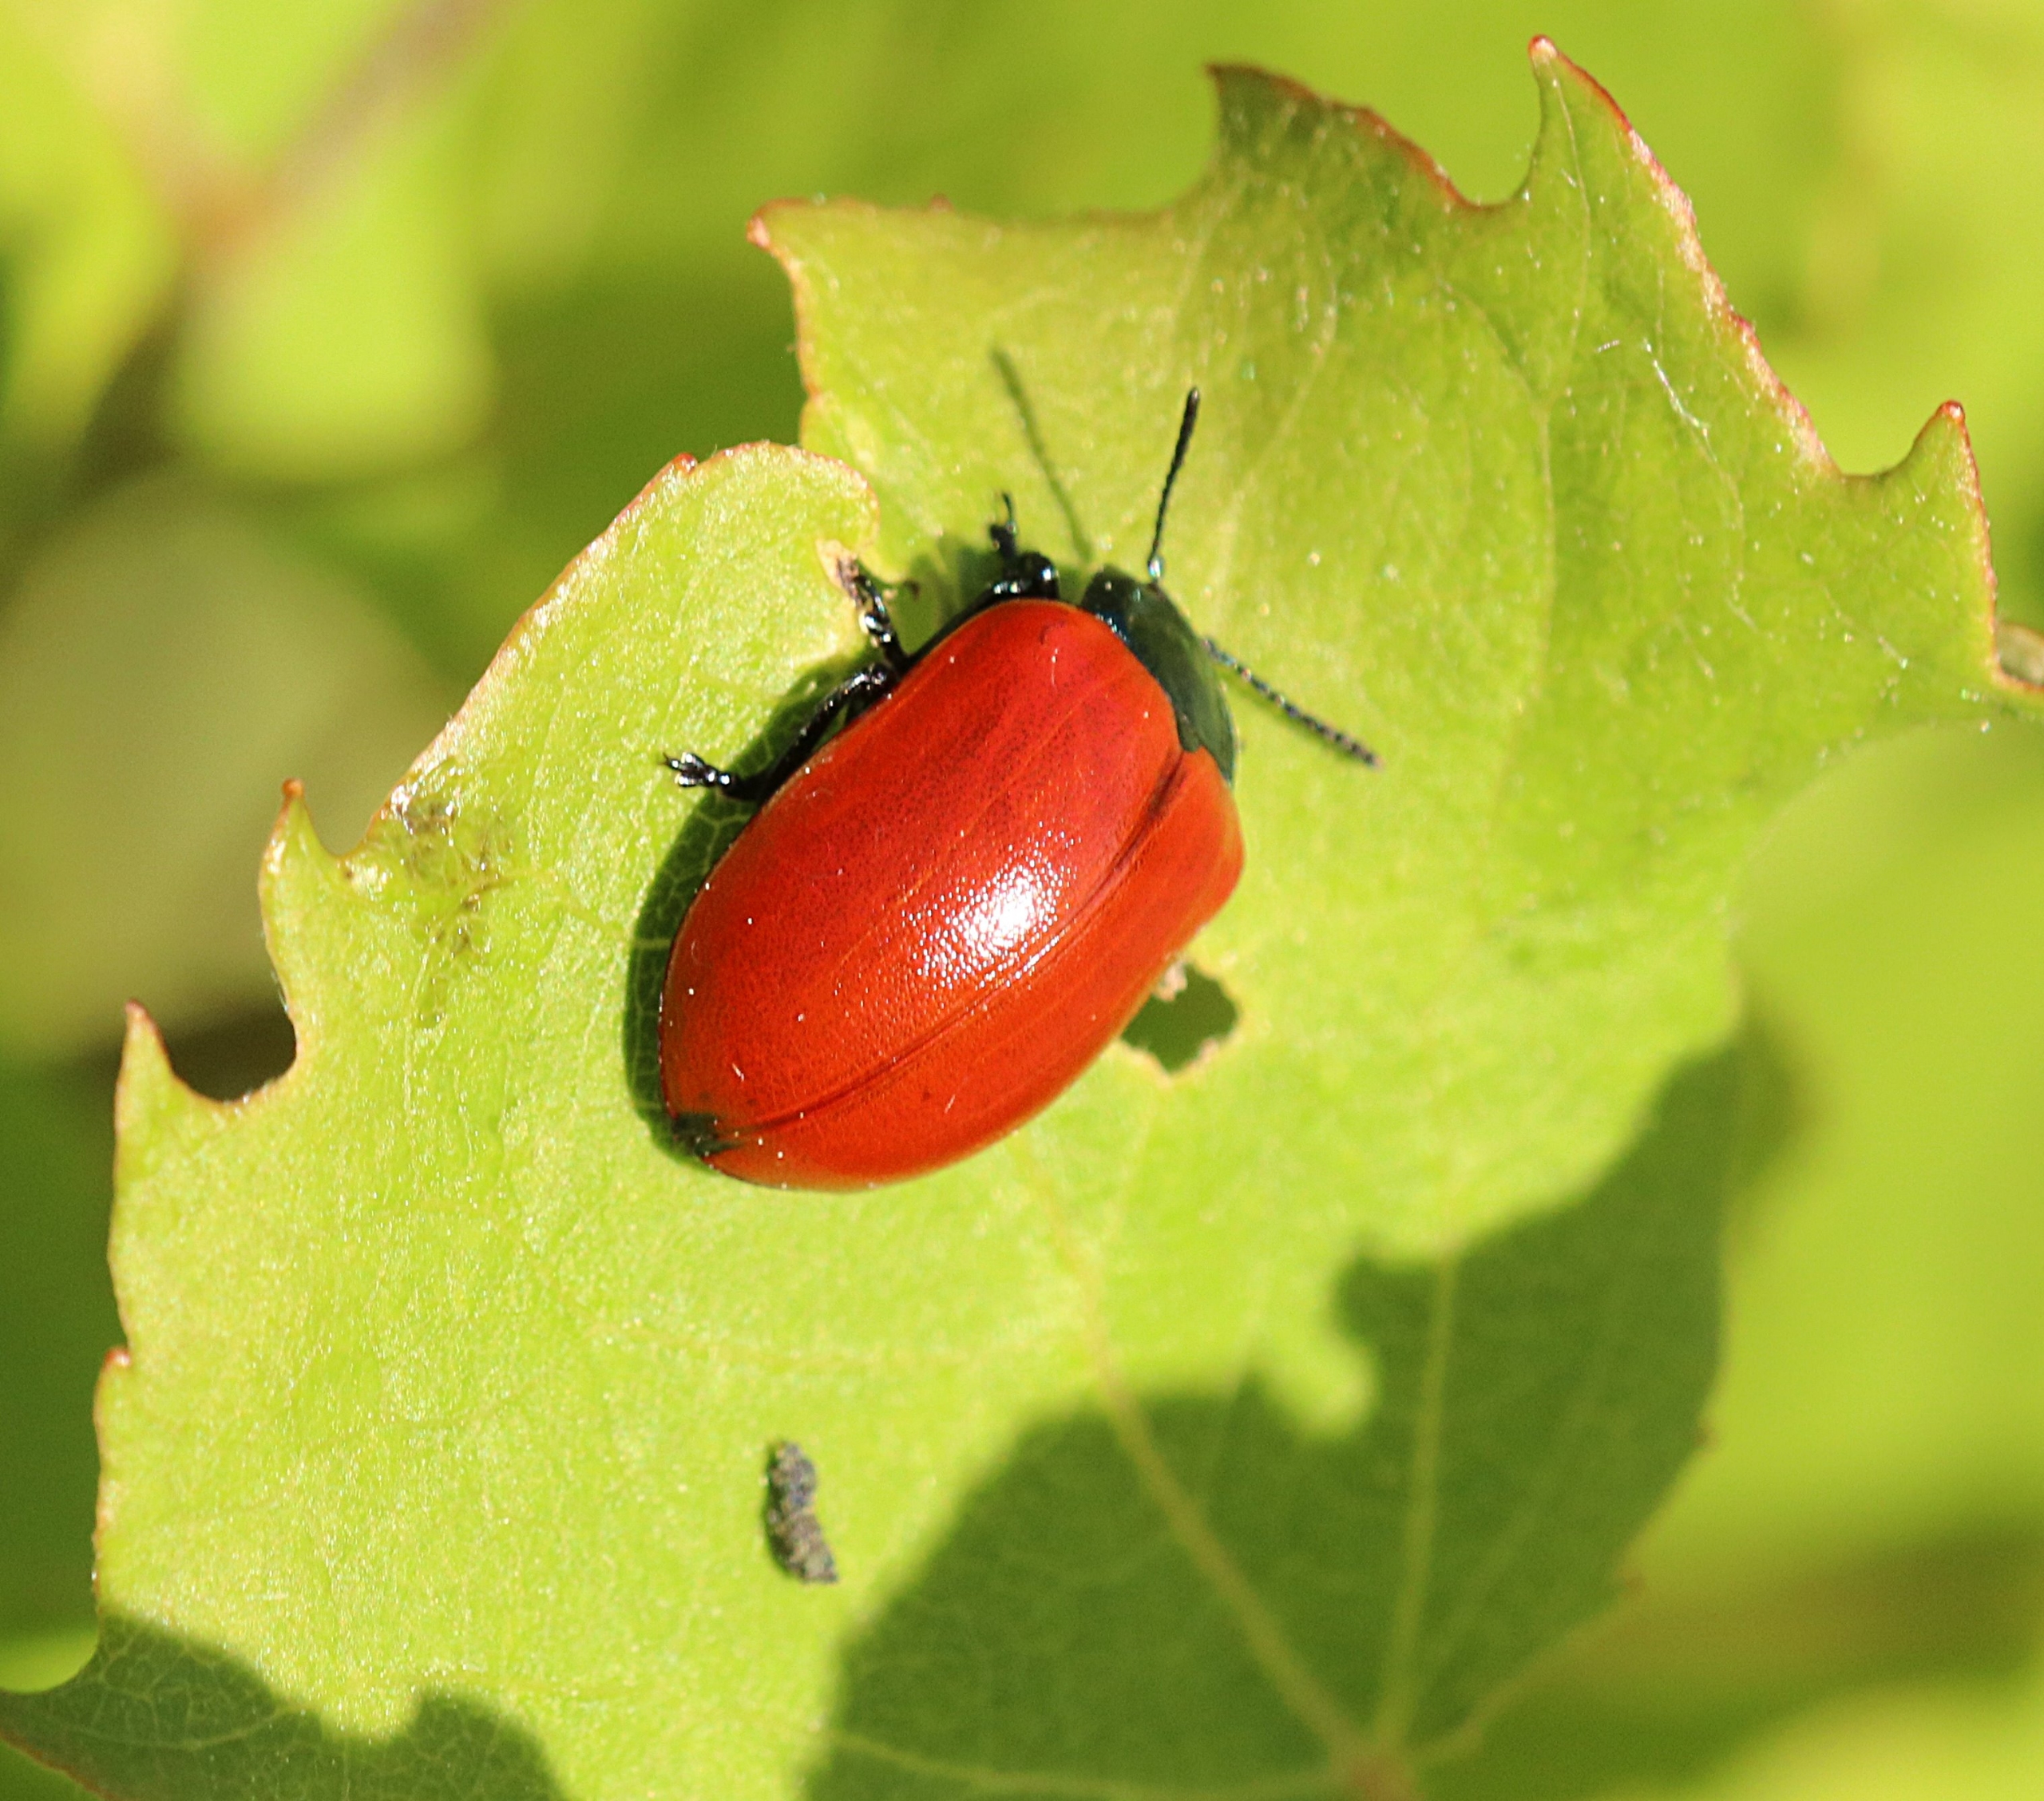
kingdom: Animalia
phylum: Arthropoda
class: Insecta
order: Coleoptera
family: Chrysomelidae
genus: Chrysomela
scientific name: Chrysomela populi
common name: Poppelbladbille
